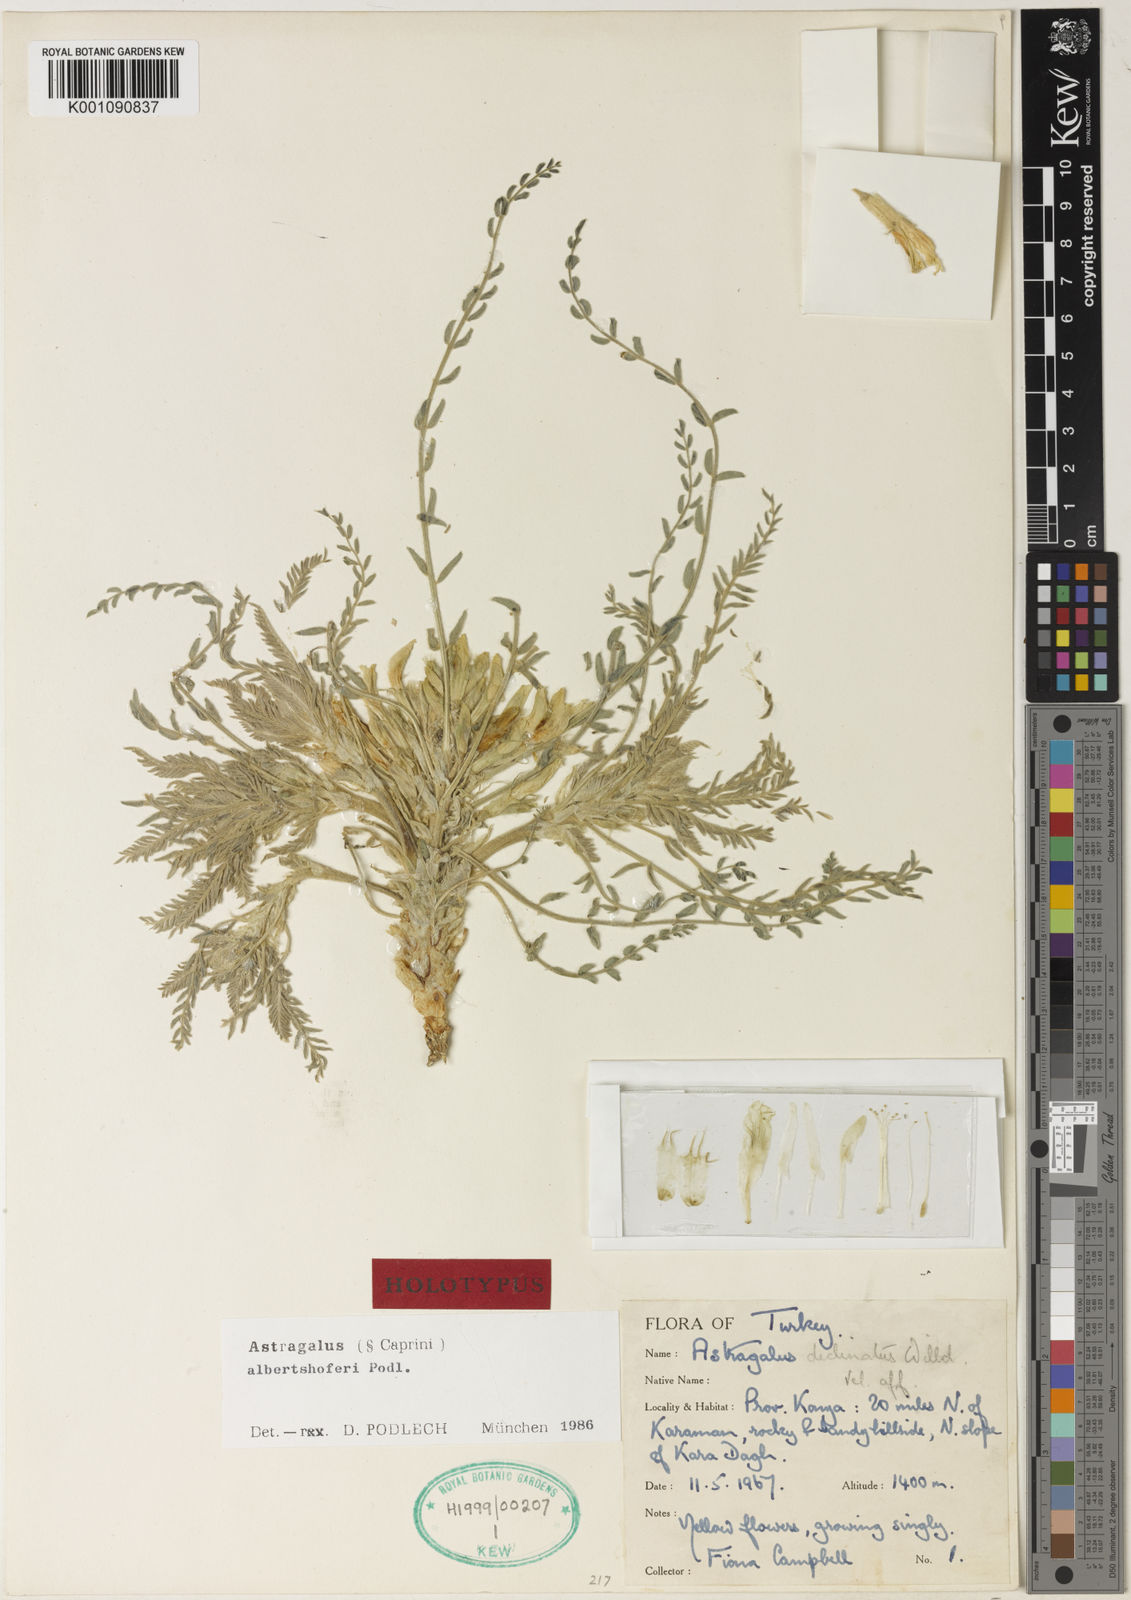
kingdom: Plantae
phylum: Tracheophyta
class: Magnoliopsida
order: Fabales
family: Fabaceae
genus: Astragalus
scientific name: Astragalus
